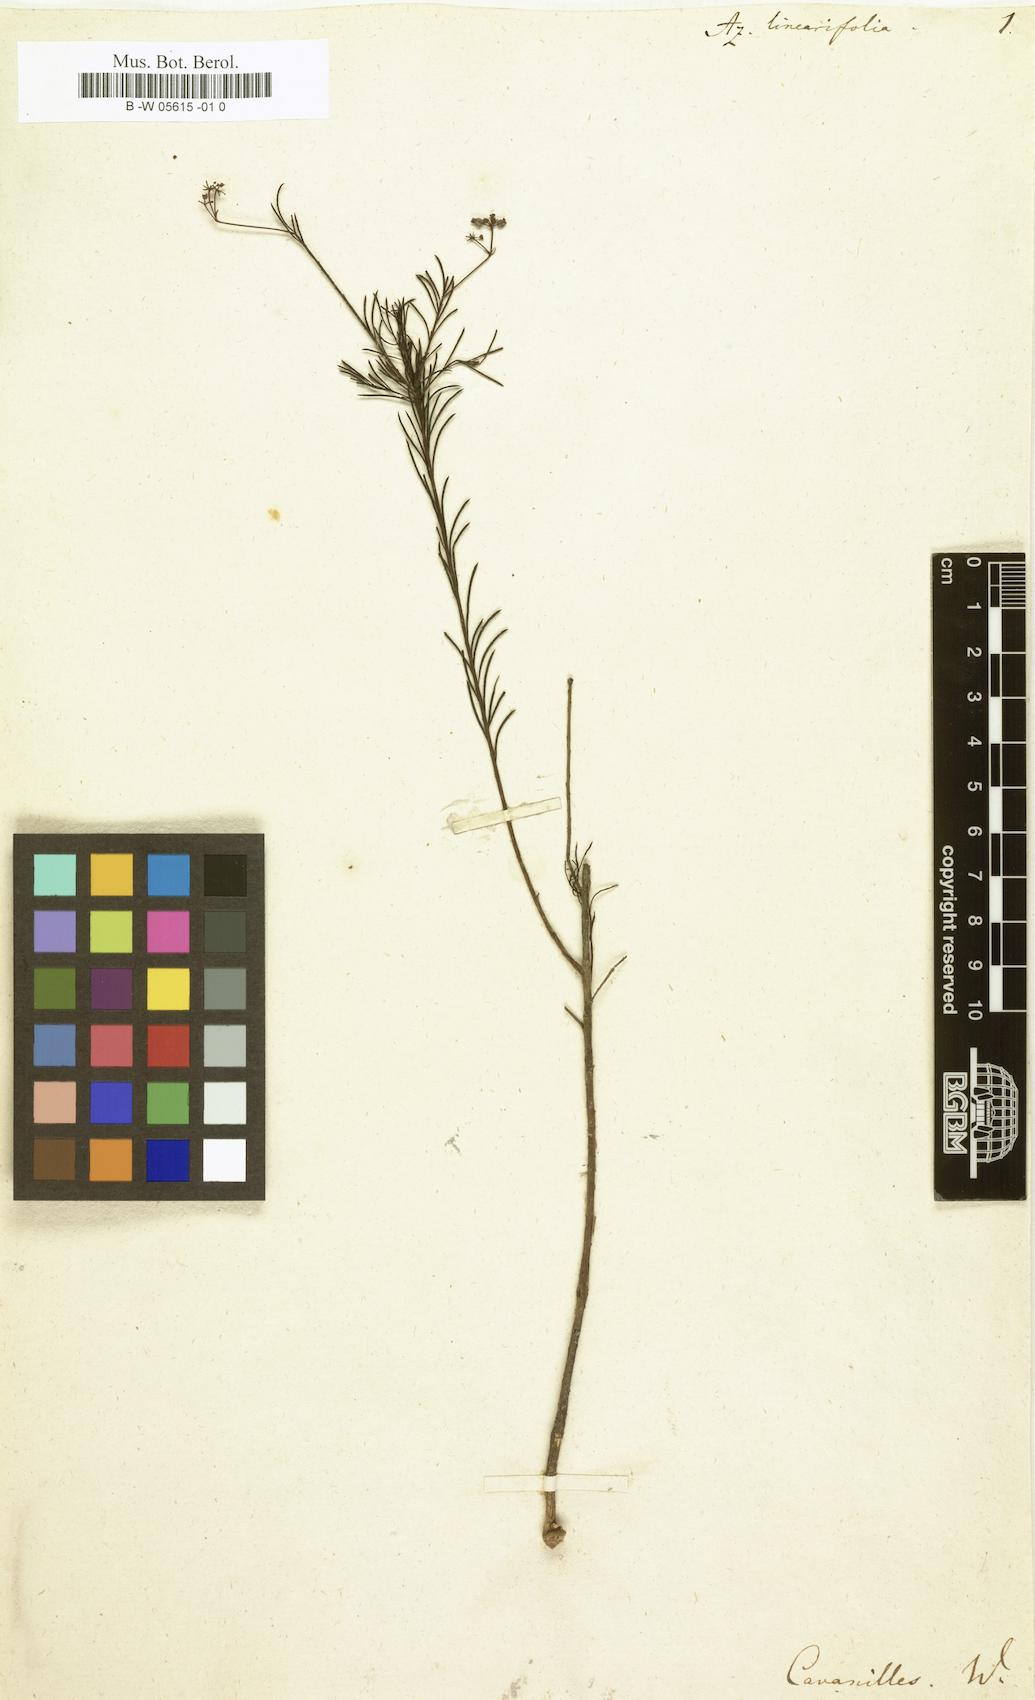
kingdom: Plantae
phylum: Tracheophyta
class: Magnoliopsida
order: Apiales
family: Apiaceae
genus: Platysace
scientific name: Platysace linearifolia
